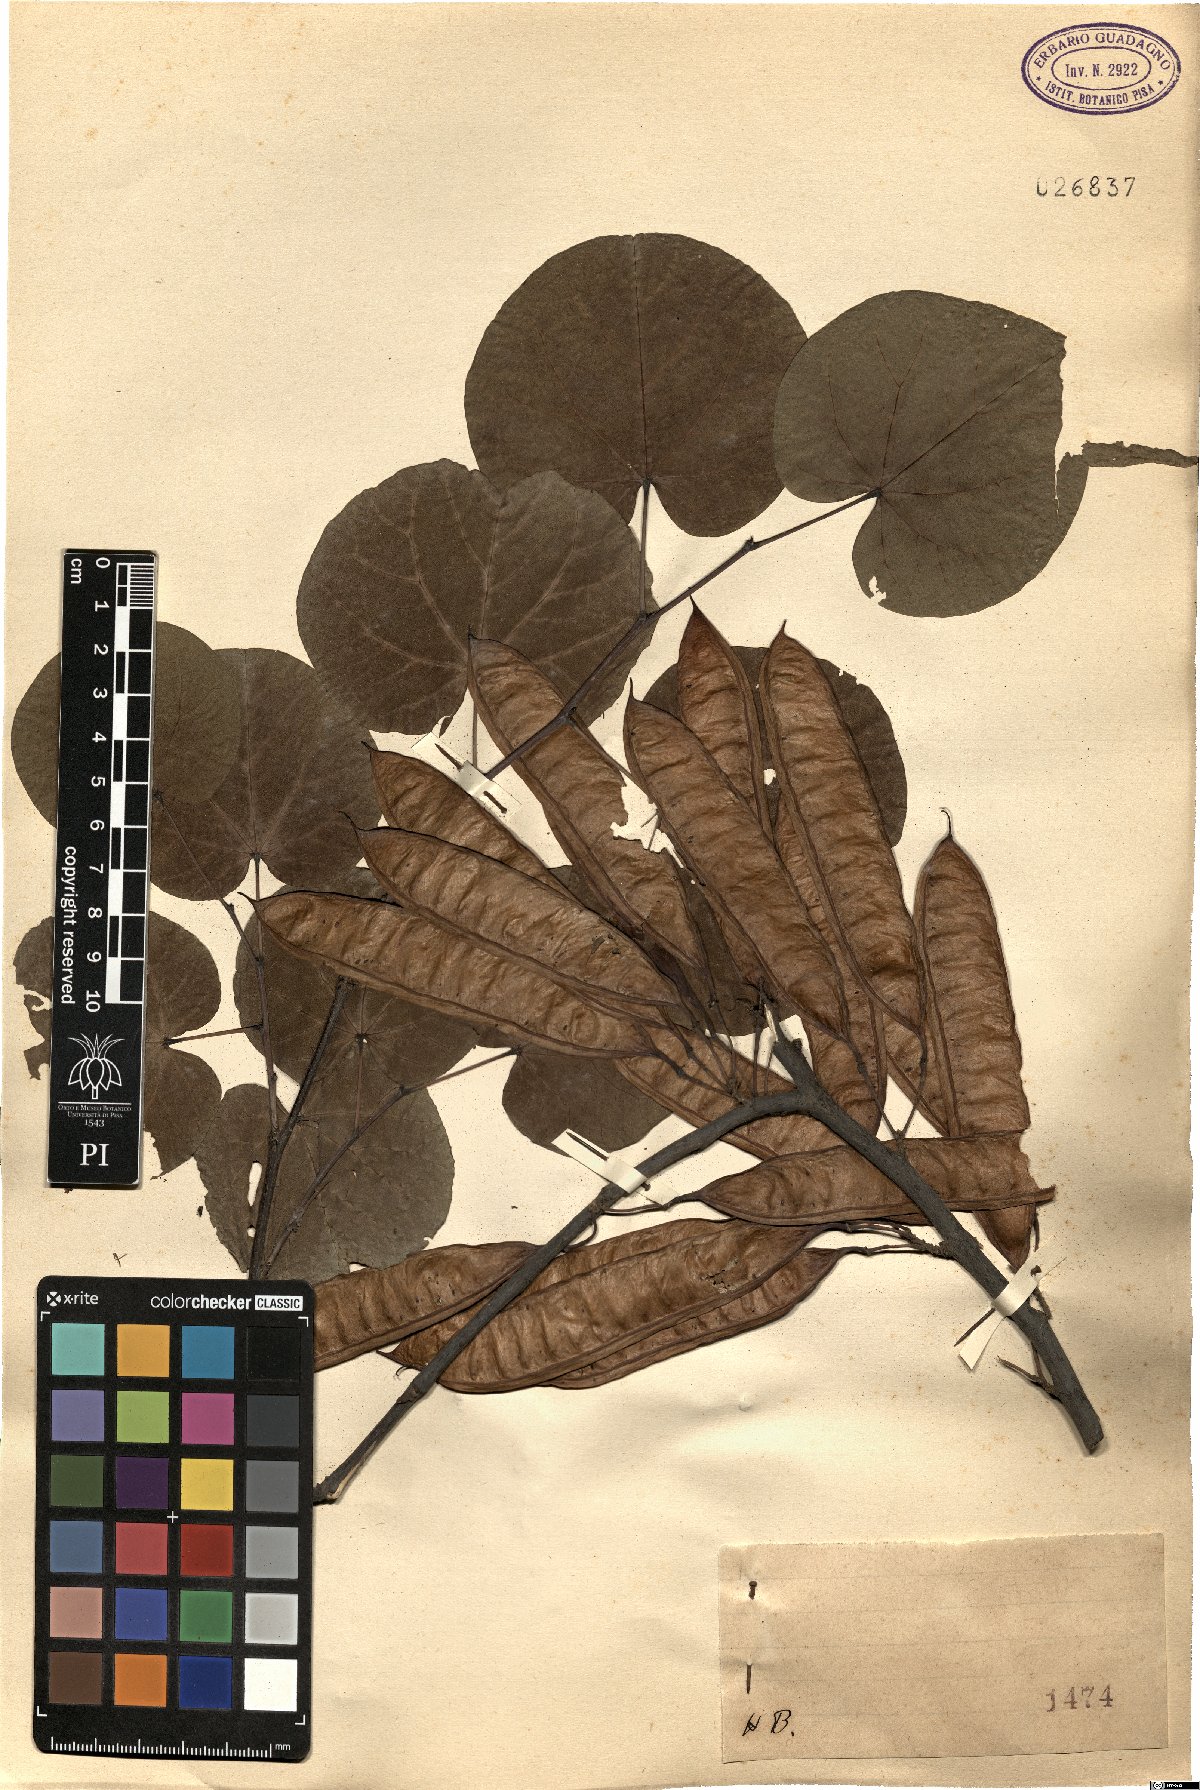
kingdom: Plantae
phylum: Tracheophyta
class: Magnoliopsida
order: Fabales
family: Fabaceae
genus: Cercis
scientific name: Cercis
